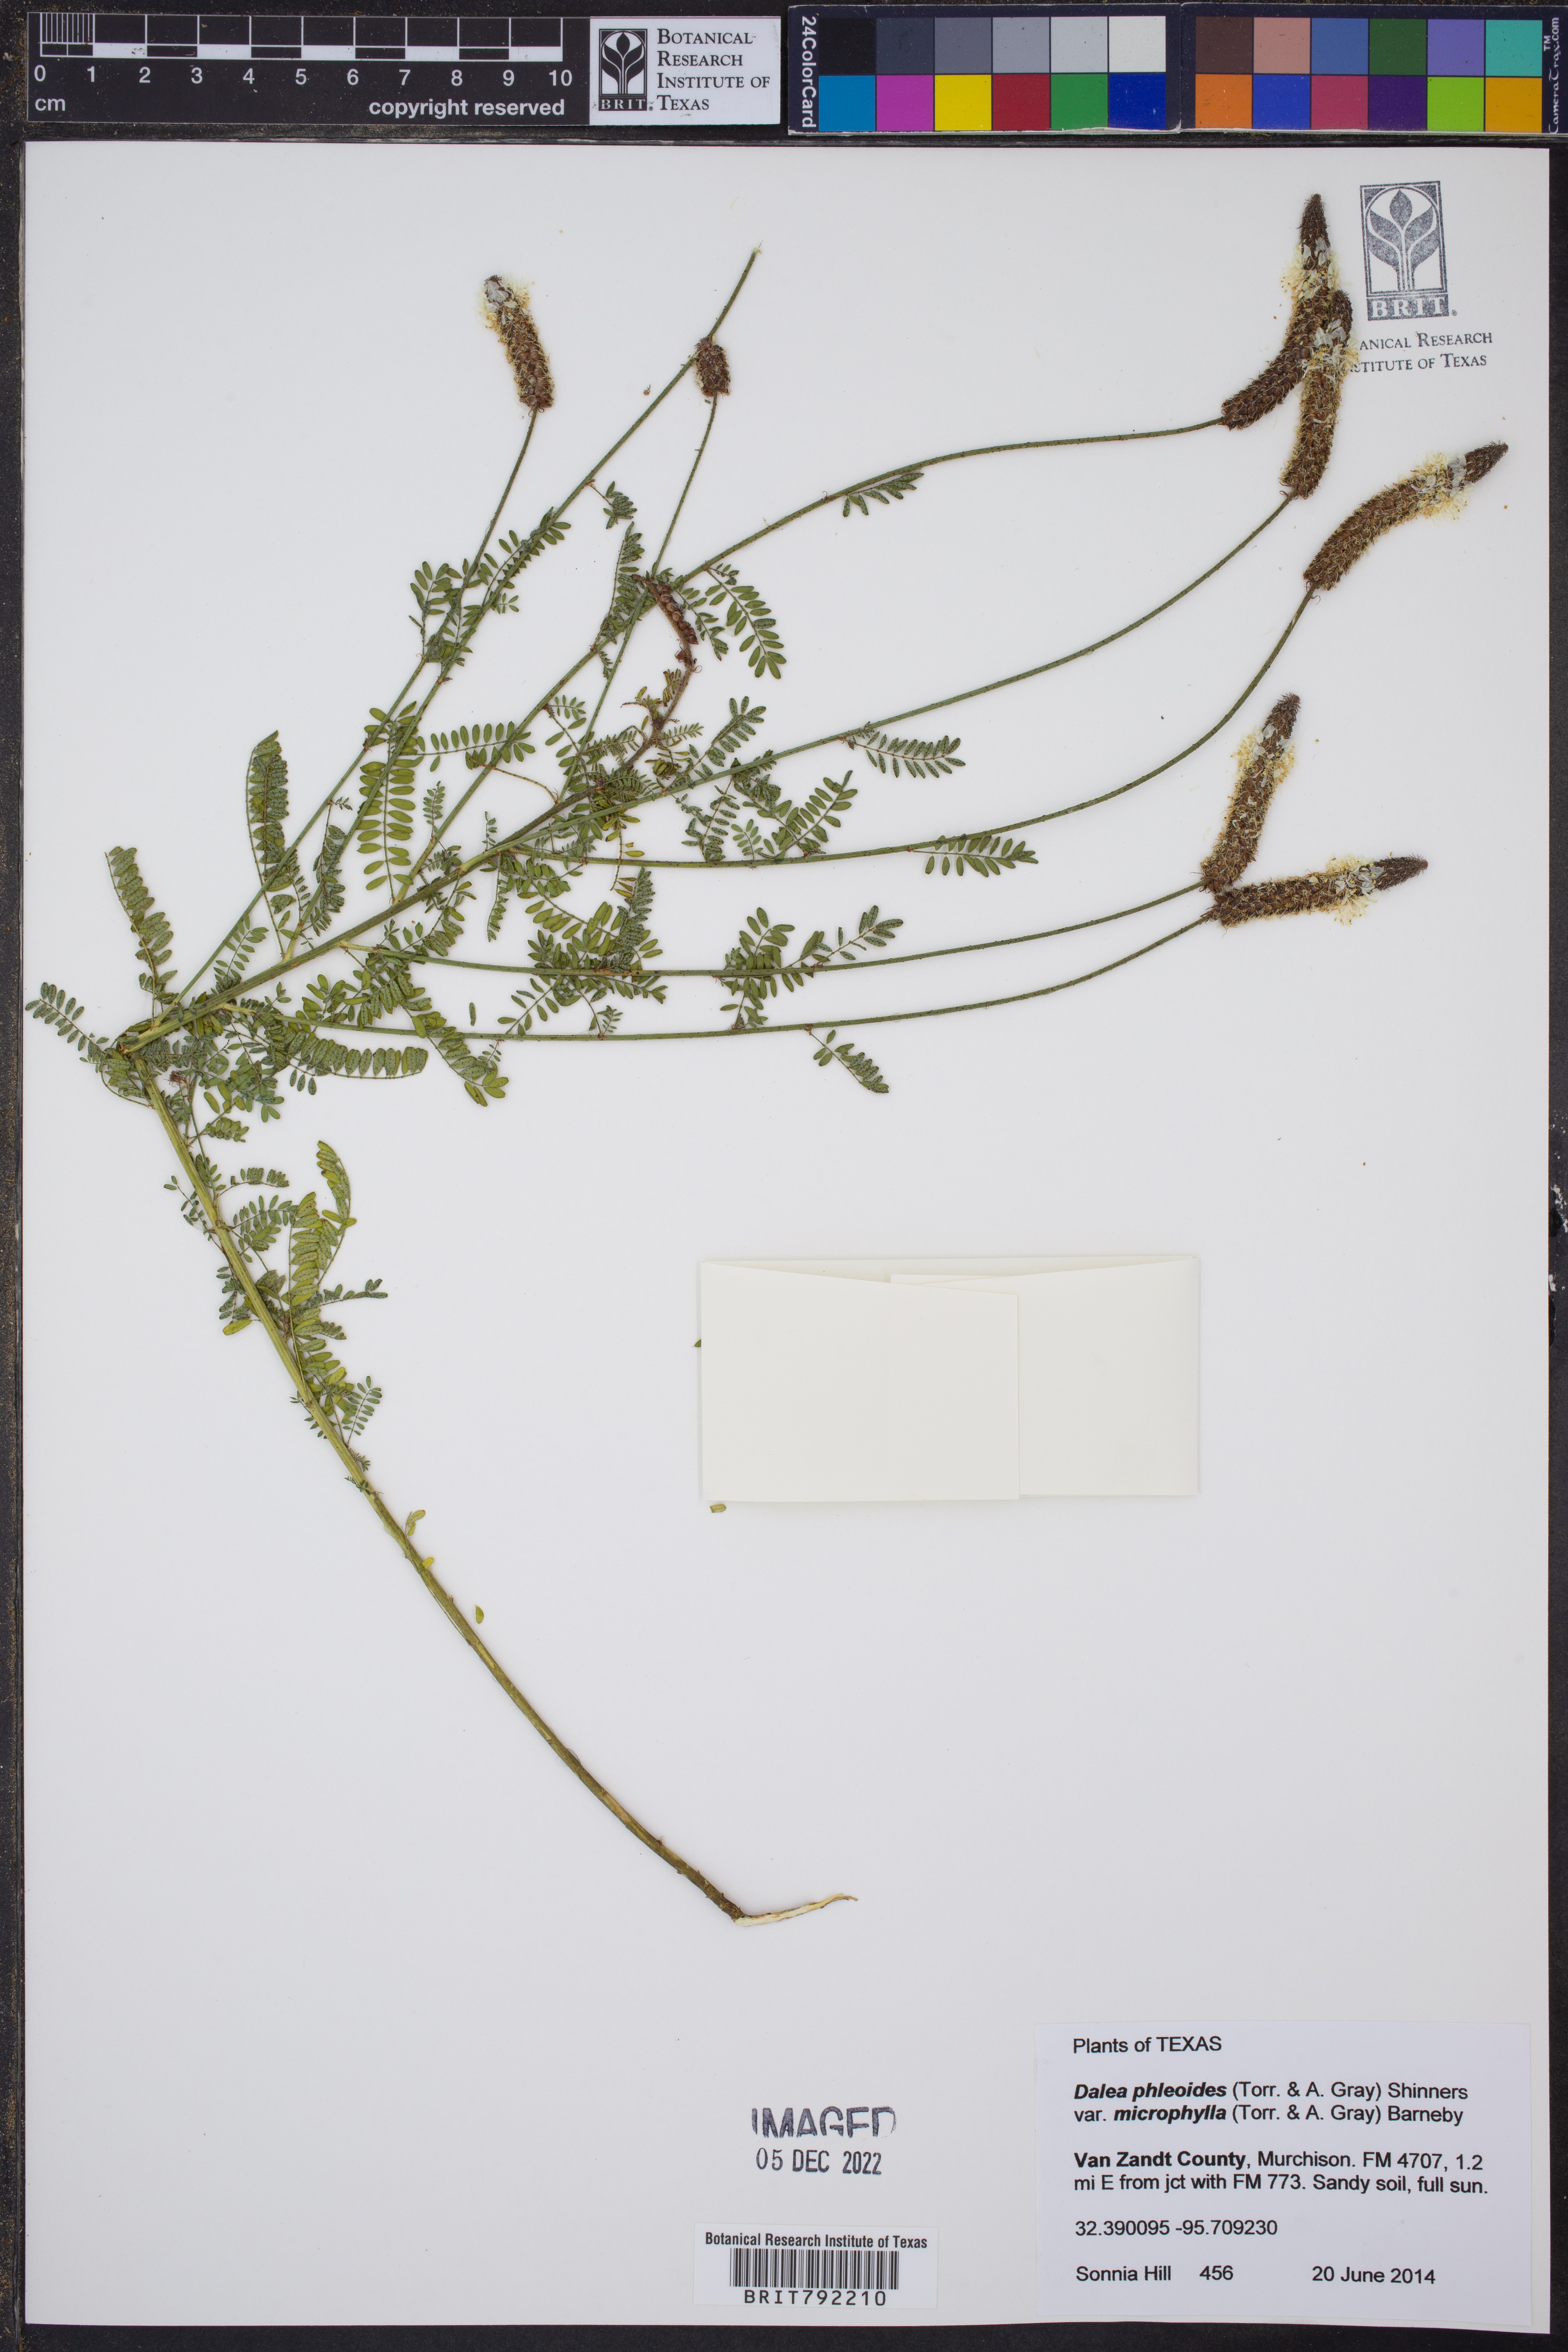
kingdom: Plantae
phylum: Tracheophyta
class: Magnoliopsida
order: Fabales
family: Fabaceae
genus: Dalea
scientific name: Dalea drummondiana
